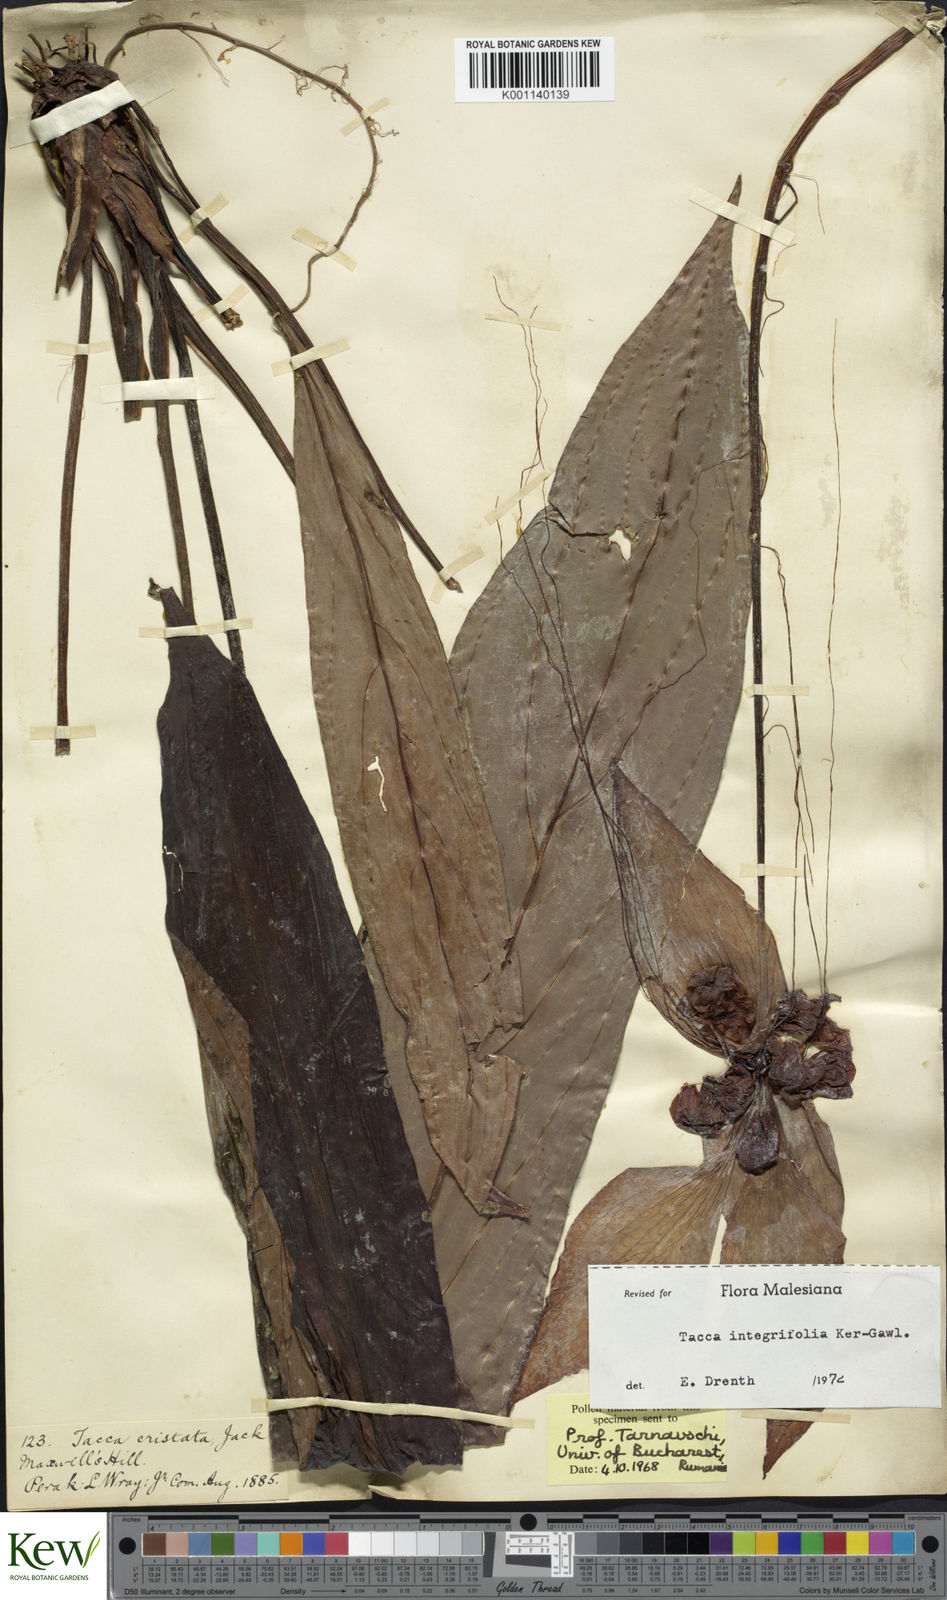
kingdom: Plantae
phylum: Tracheophyta
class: Liliopsida
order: Dioscoreales
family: Dioscoreaceae
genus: Tacca
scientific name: Tacca integrifolia
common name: Batplant
